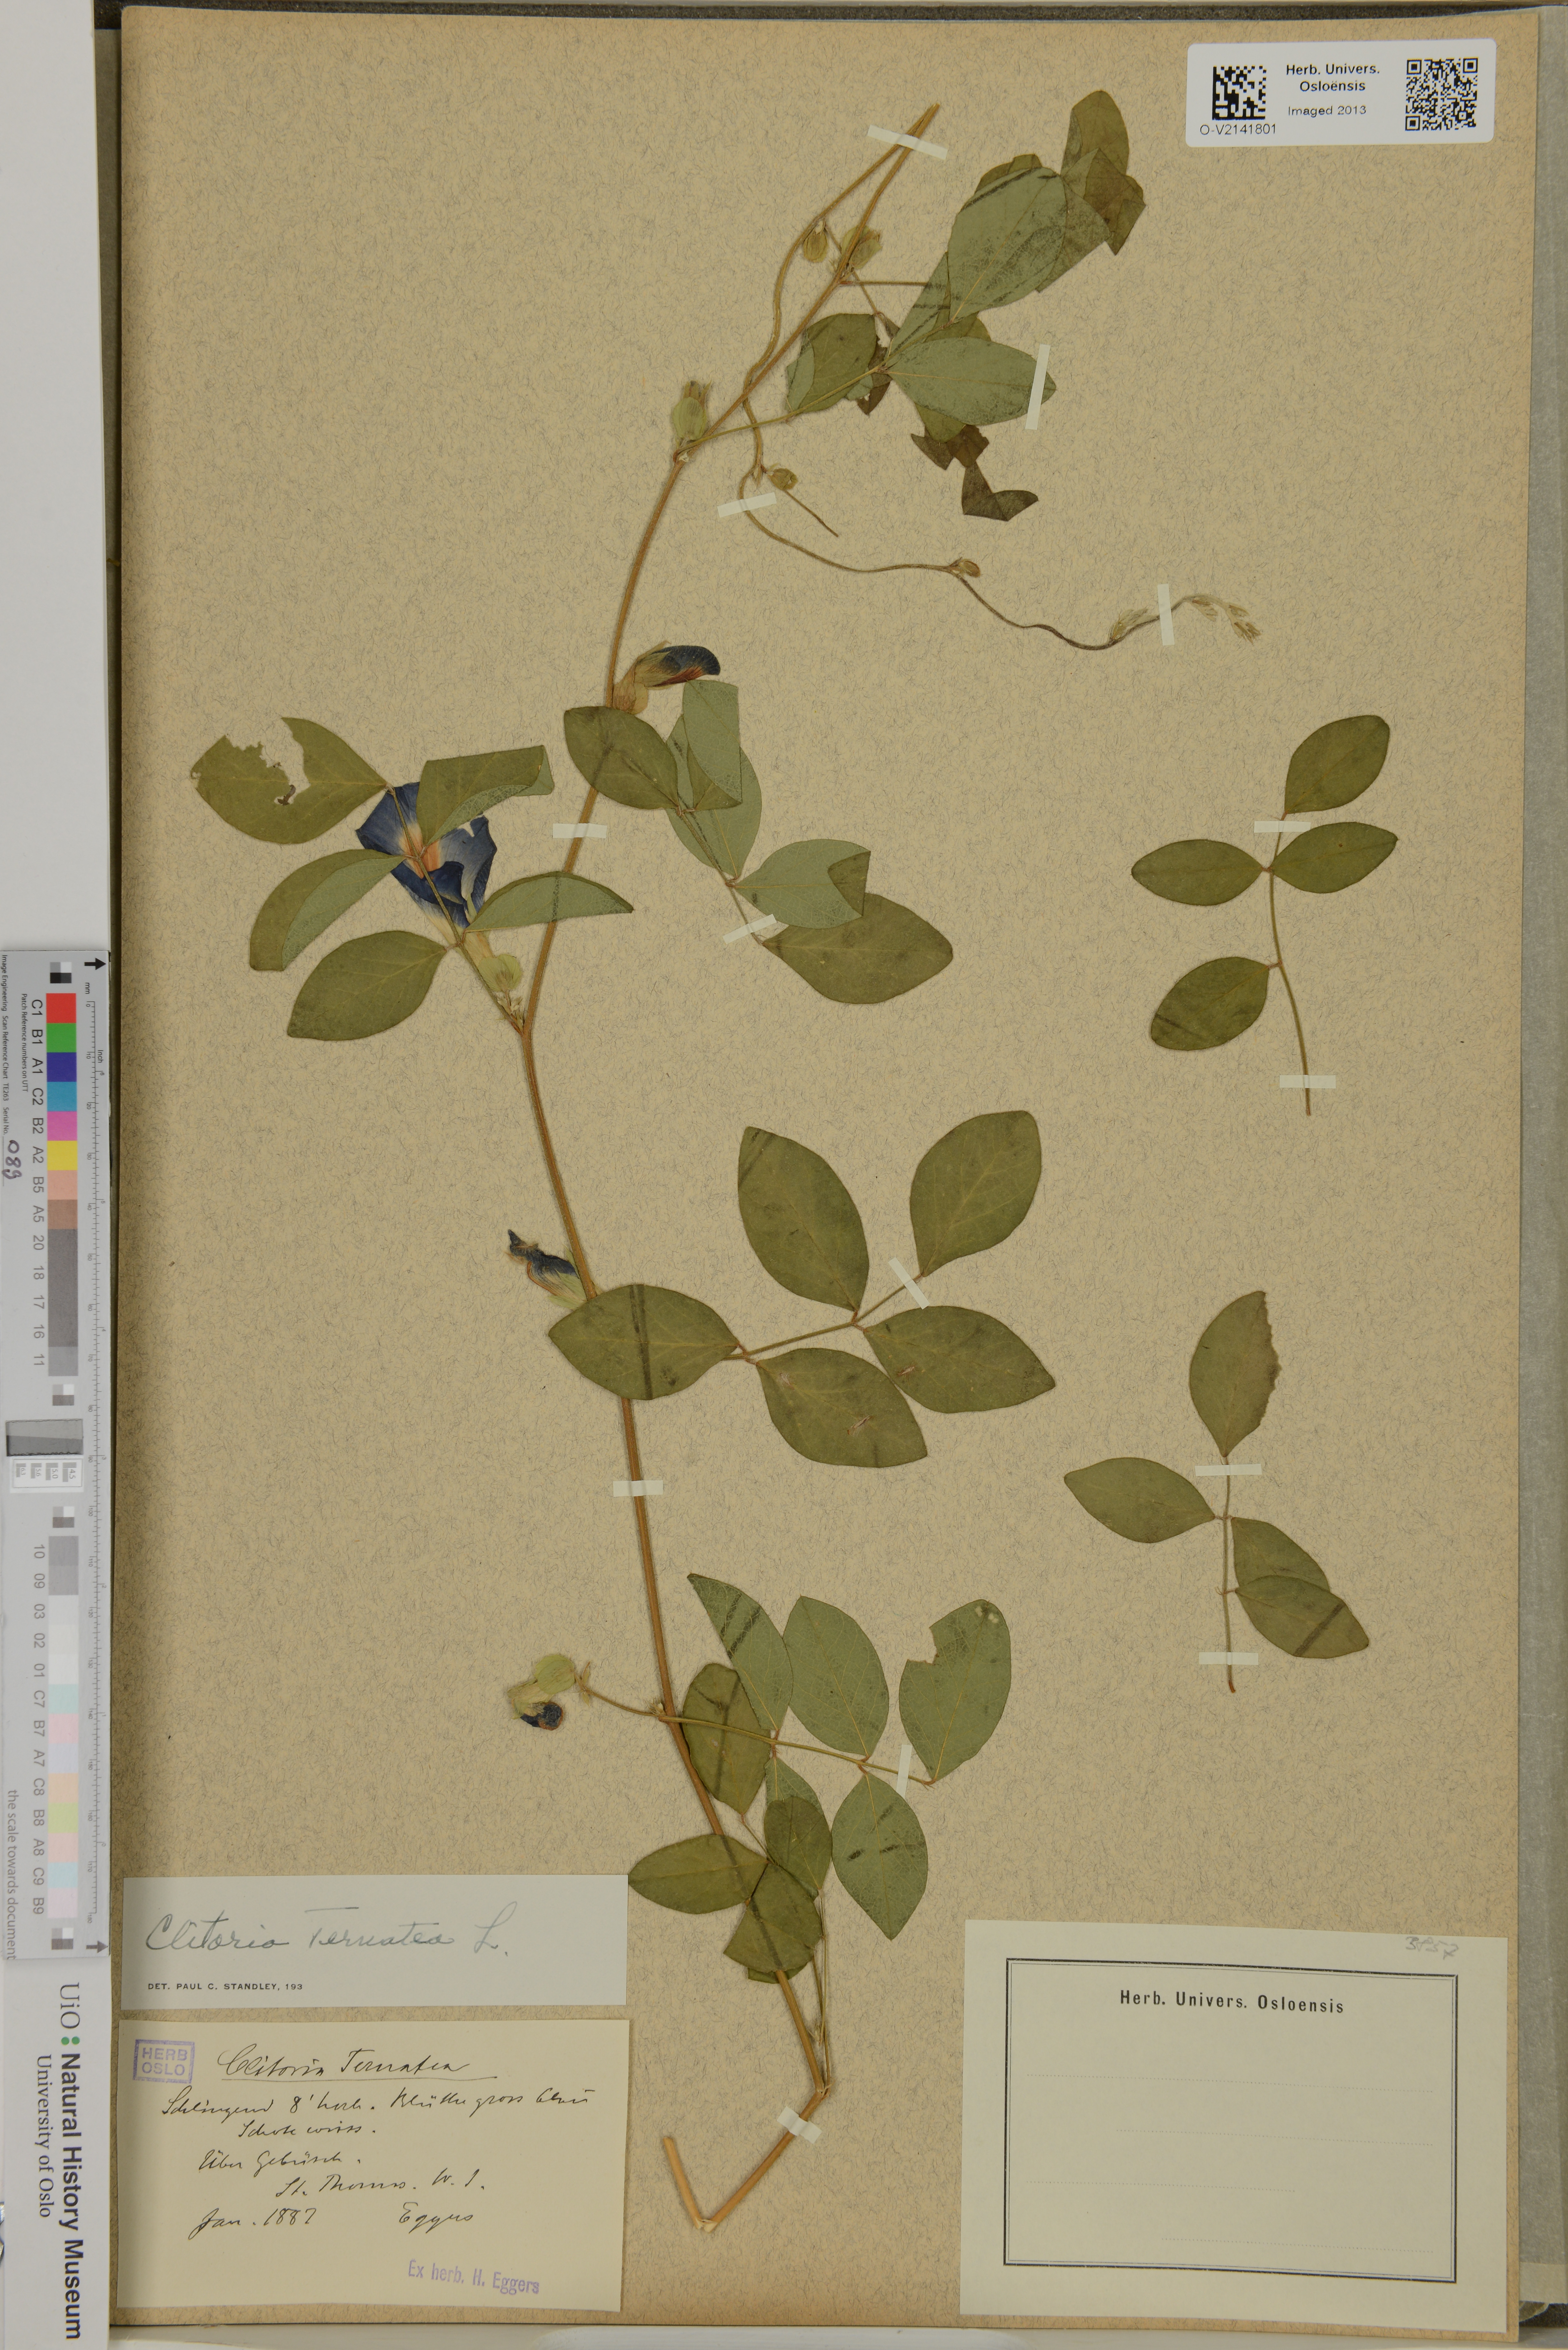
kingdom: Plantae
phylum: Tracheophyta
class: Magnoliopsida
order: Fabales
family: Fabaceae
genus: Clitoria
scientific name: Clitoria ternatea
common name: Asian pigeonwings
